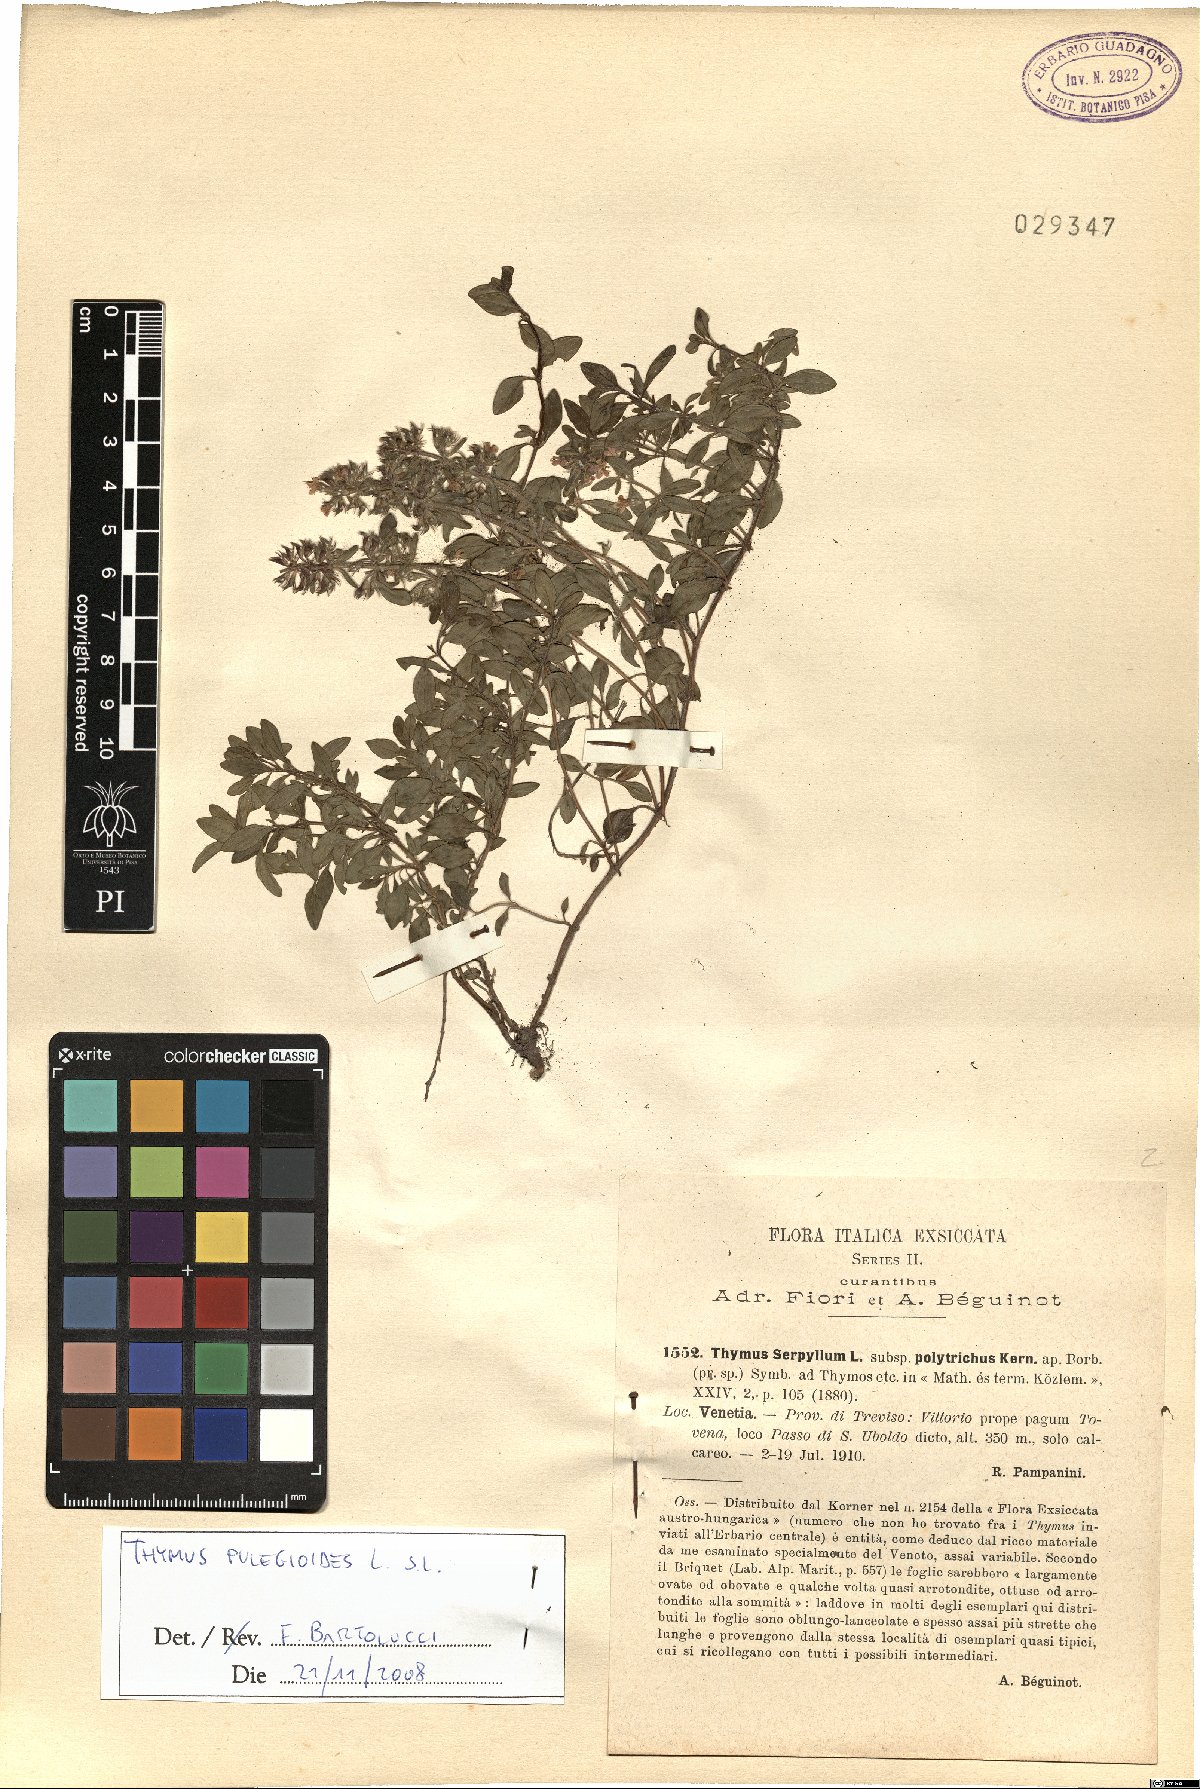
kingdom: Plantae
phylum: Tracheophyta
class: Magnoliopsida
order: Lamiales
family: Lamiaceae
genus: Thymus
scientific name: Thymus pulegioides
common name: Large thyme
